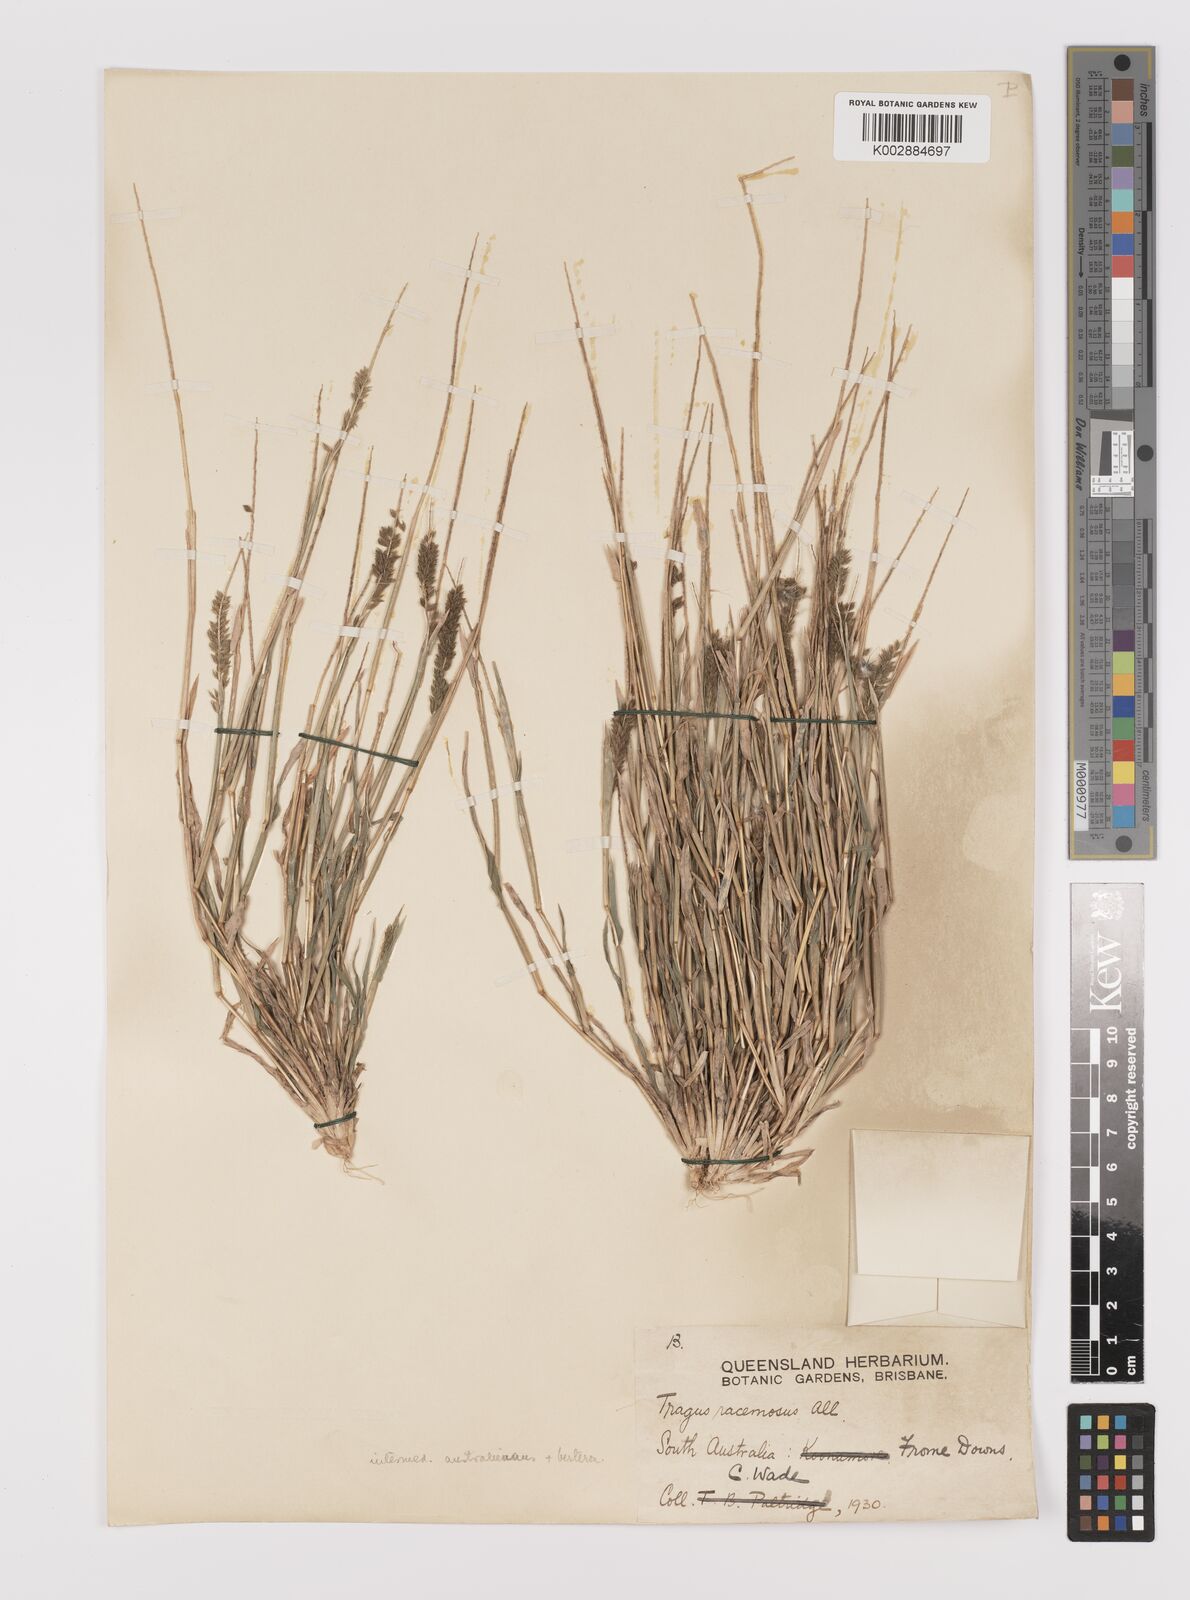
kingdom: Plantae
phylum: Tracheophyta
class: Liliopsida
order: Poales
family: Poaceae
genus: Tragus
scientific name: Tragus australianus
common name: Australian bur-grass
